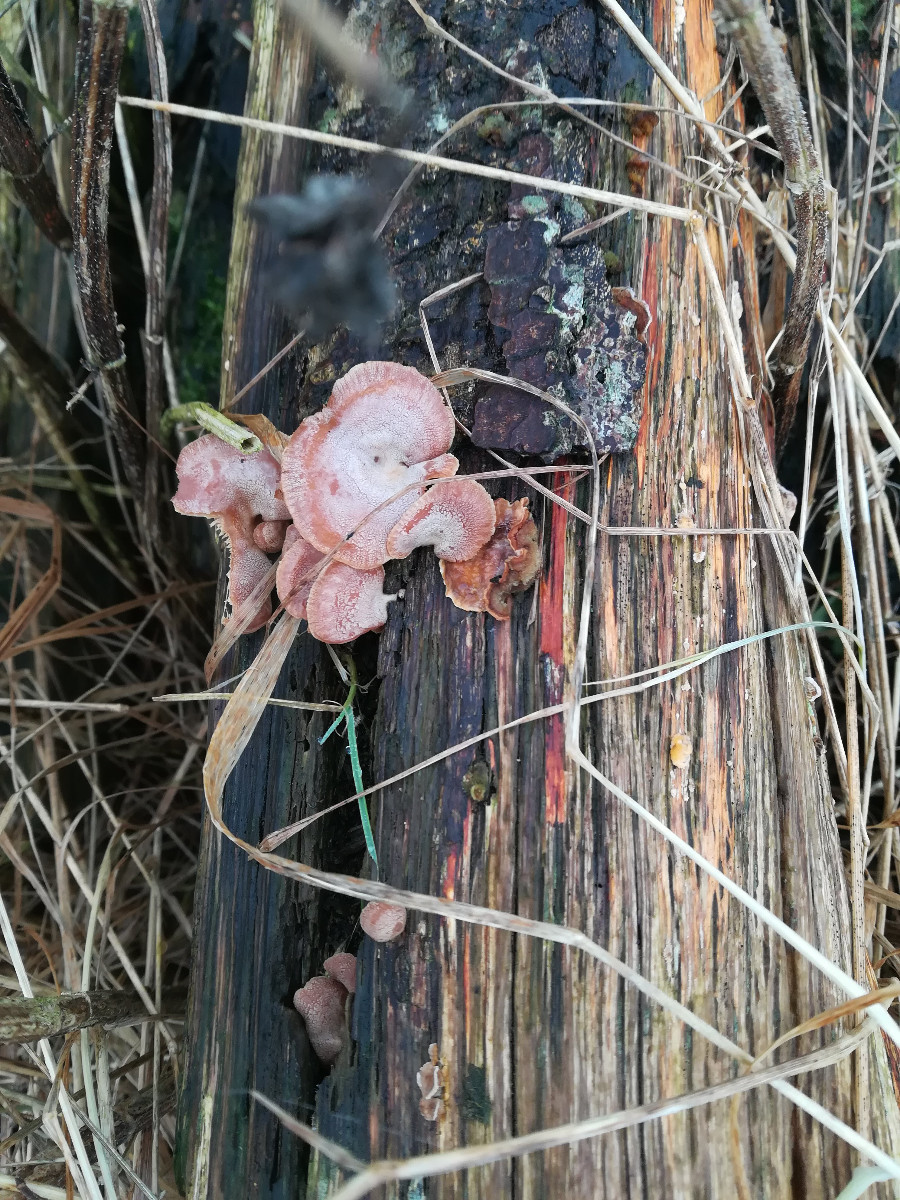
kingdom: Fungi
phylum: Basidiomycota
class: Agaricomycetes
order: Agaricales
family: Mycenaceae
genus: Panellus
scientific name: Panellus stipticus
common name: kliddet epaulethat
